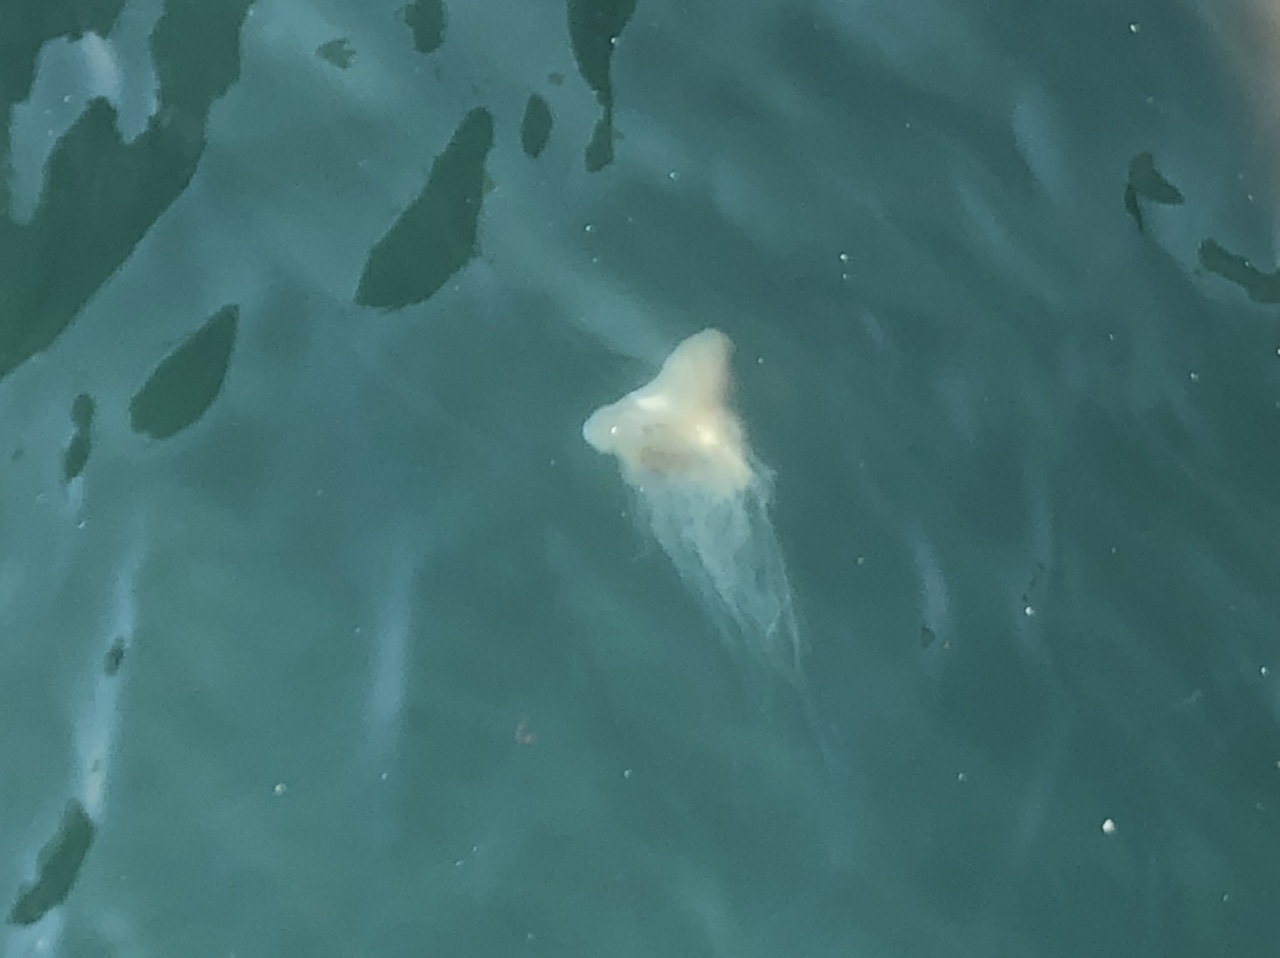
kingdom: Animalia
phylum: Cnidaria
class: Scyphozoa
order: Semaeostomeae
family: Cyaneidae
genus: Cyanea
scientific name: Cyanea nozakii
